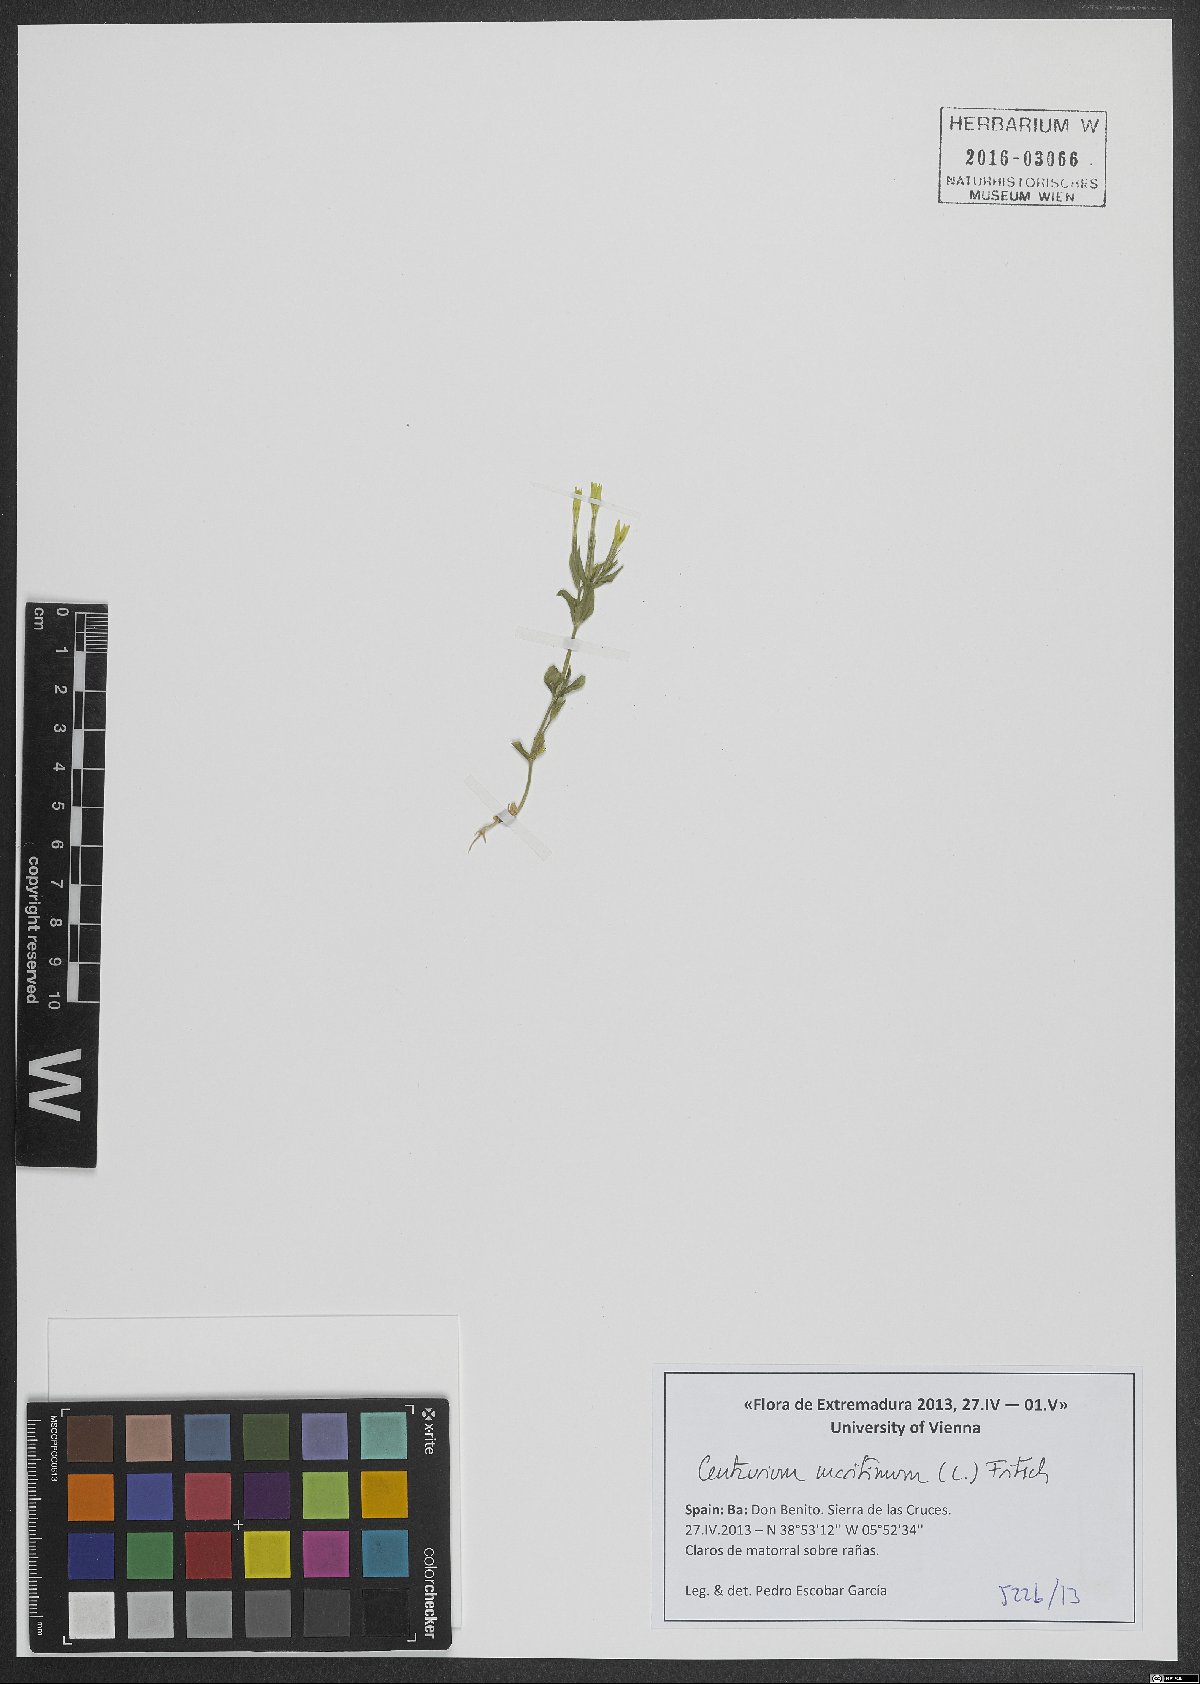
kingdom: Plantae
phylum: Tracheophyta
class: Magnoliopsida
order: Gentianales
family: Gentianaceae
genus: Centaurium
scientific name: Centaurium maritimum
